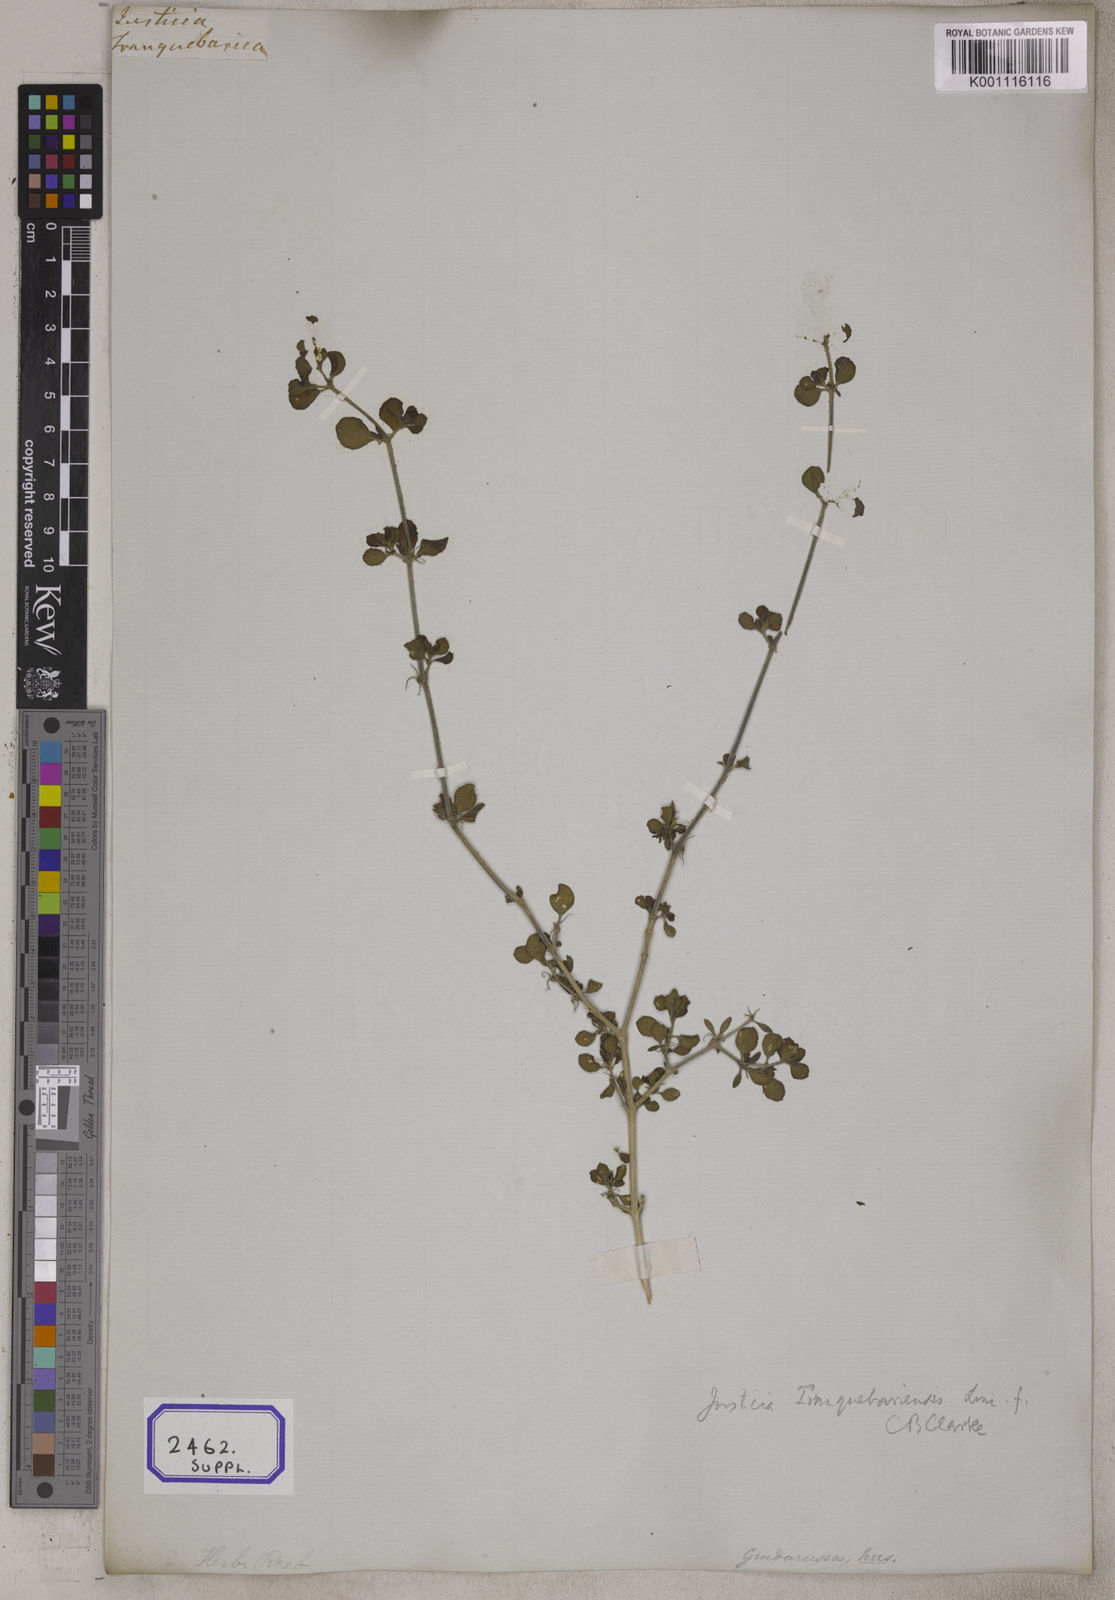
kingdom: Plantae
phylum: Tracheophyta
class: Magnoliopsida
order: Lamiales
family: Acanthaceae
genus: Justicia
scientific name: Justicia glauca
